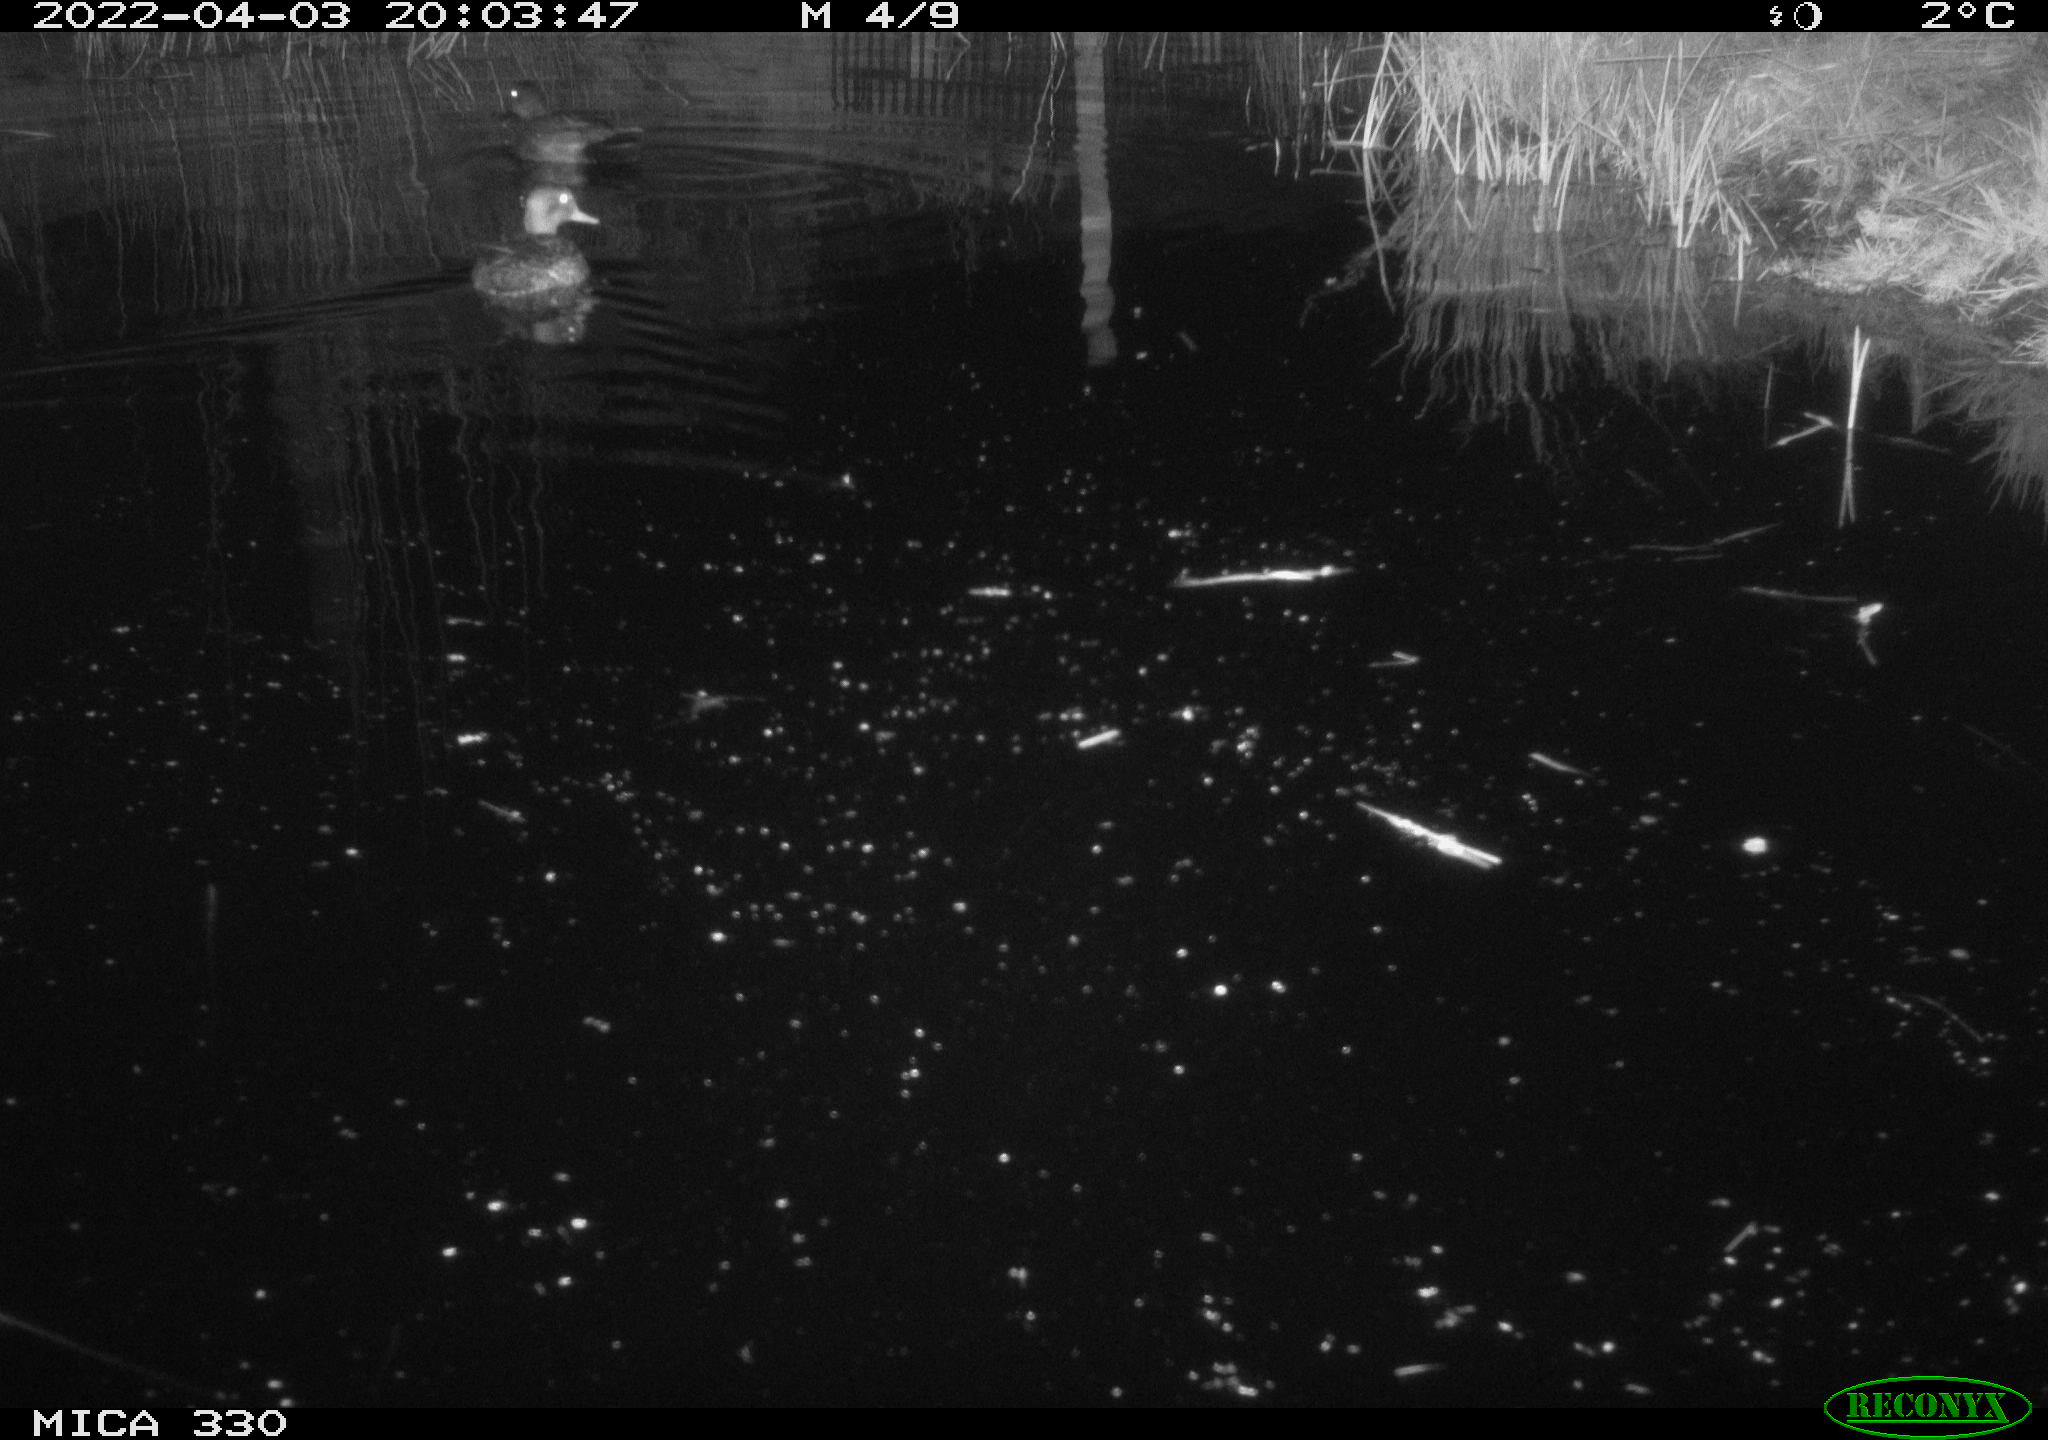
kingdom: Animalia
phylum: Chordata
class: Aves
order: Gruiformes
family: Rallidae
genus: Fulica
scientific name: Fulica atra
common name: Eurasian coot
